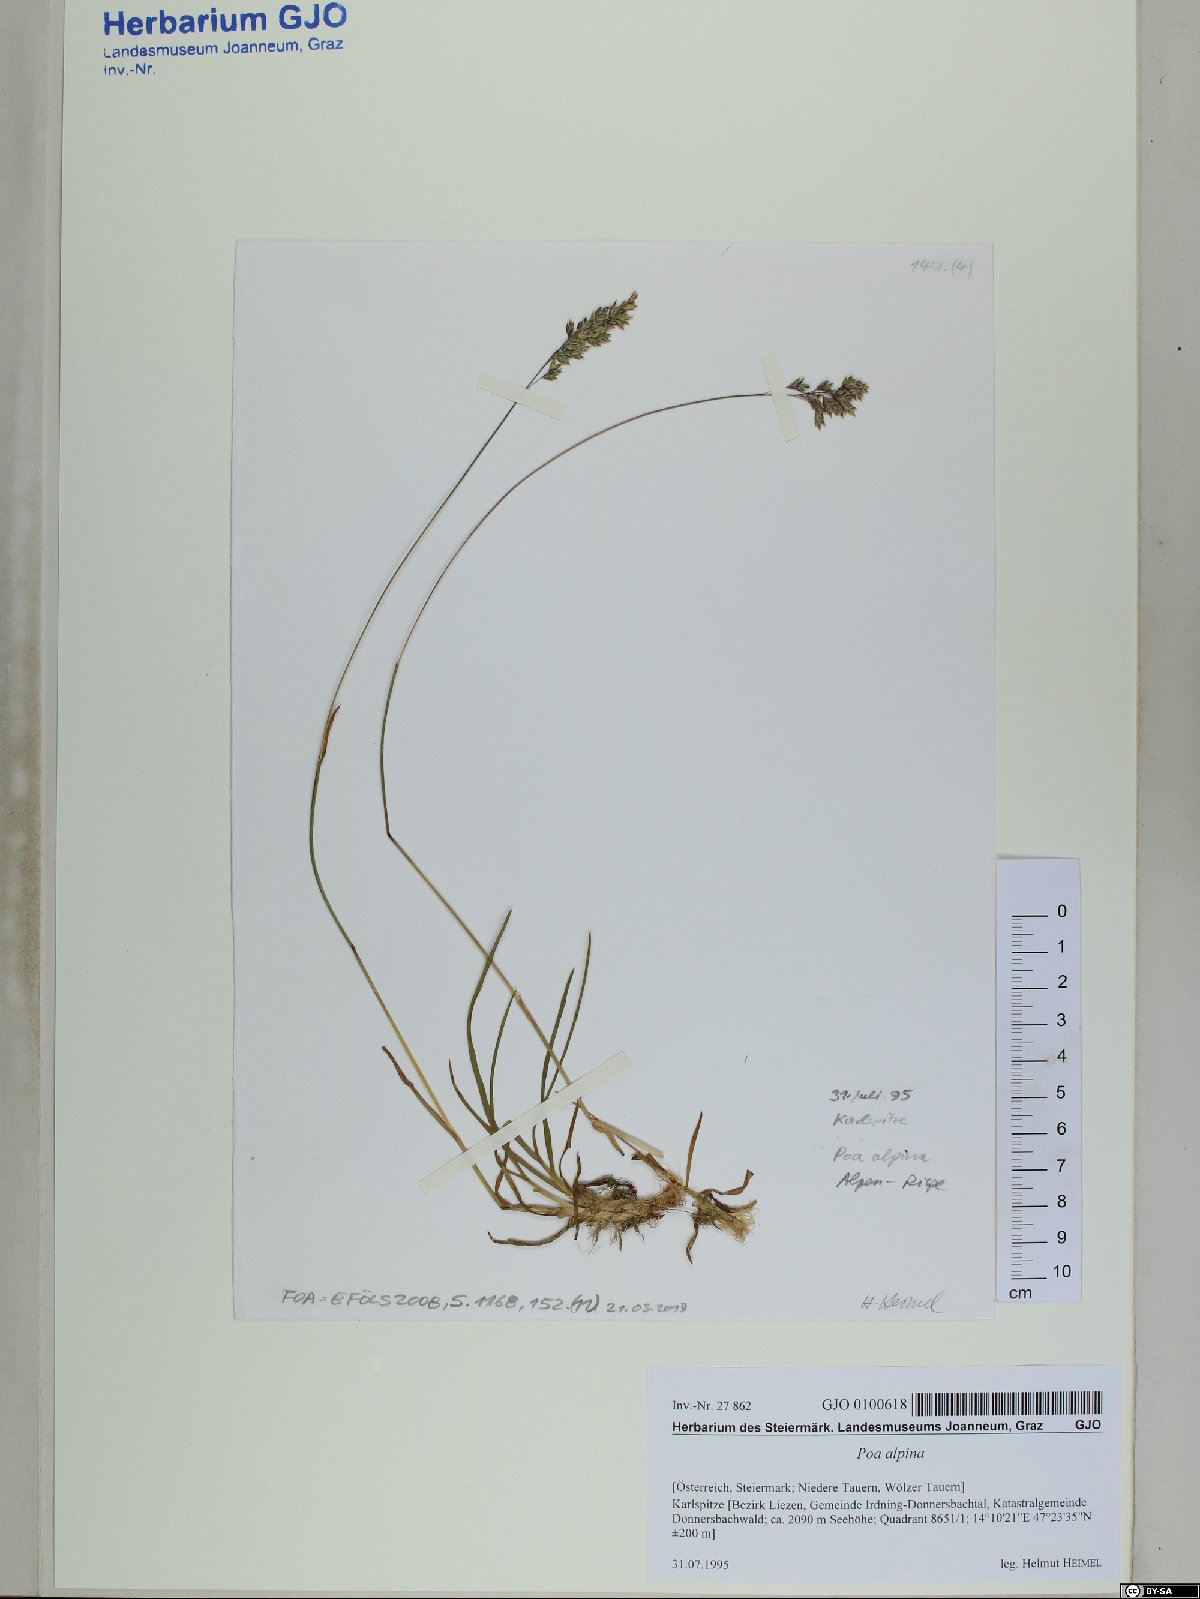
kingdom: Plantae
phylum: Tracheophyta
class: Liliopsida
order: Poales
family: Poaceae
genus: Poa
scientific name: Poa alpina
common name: Alpine bluegrass
